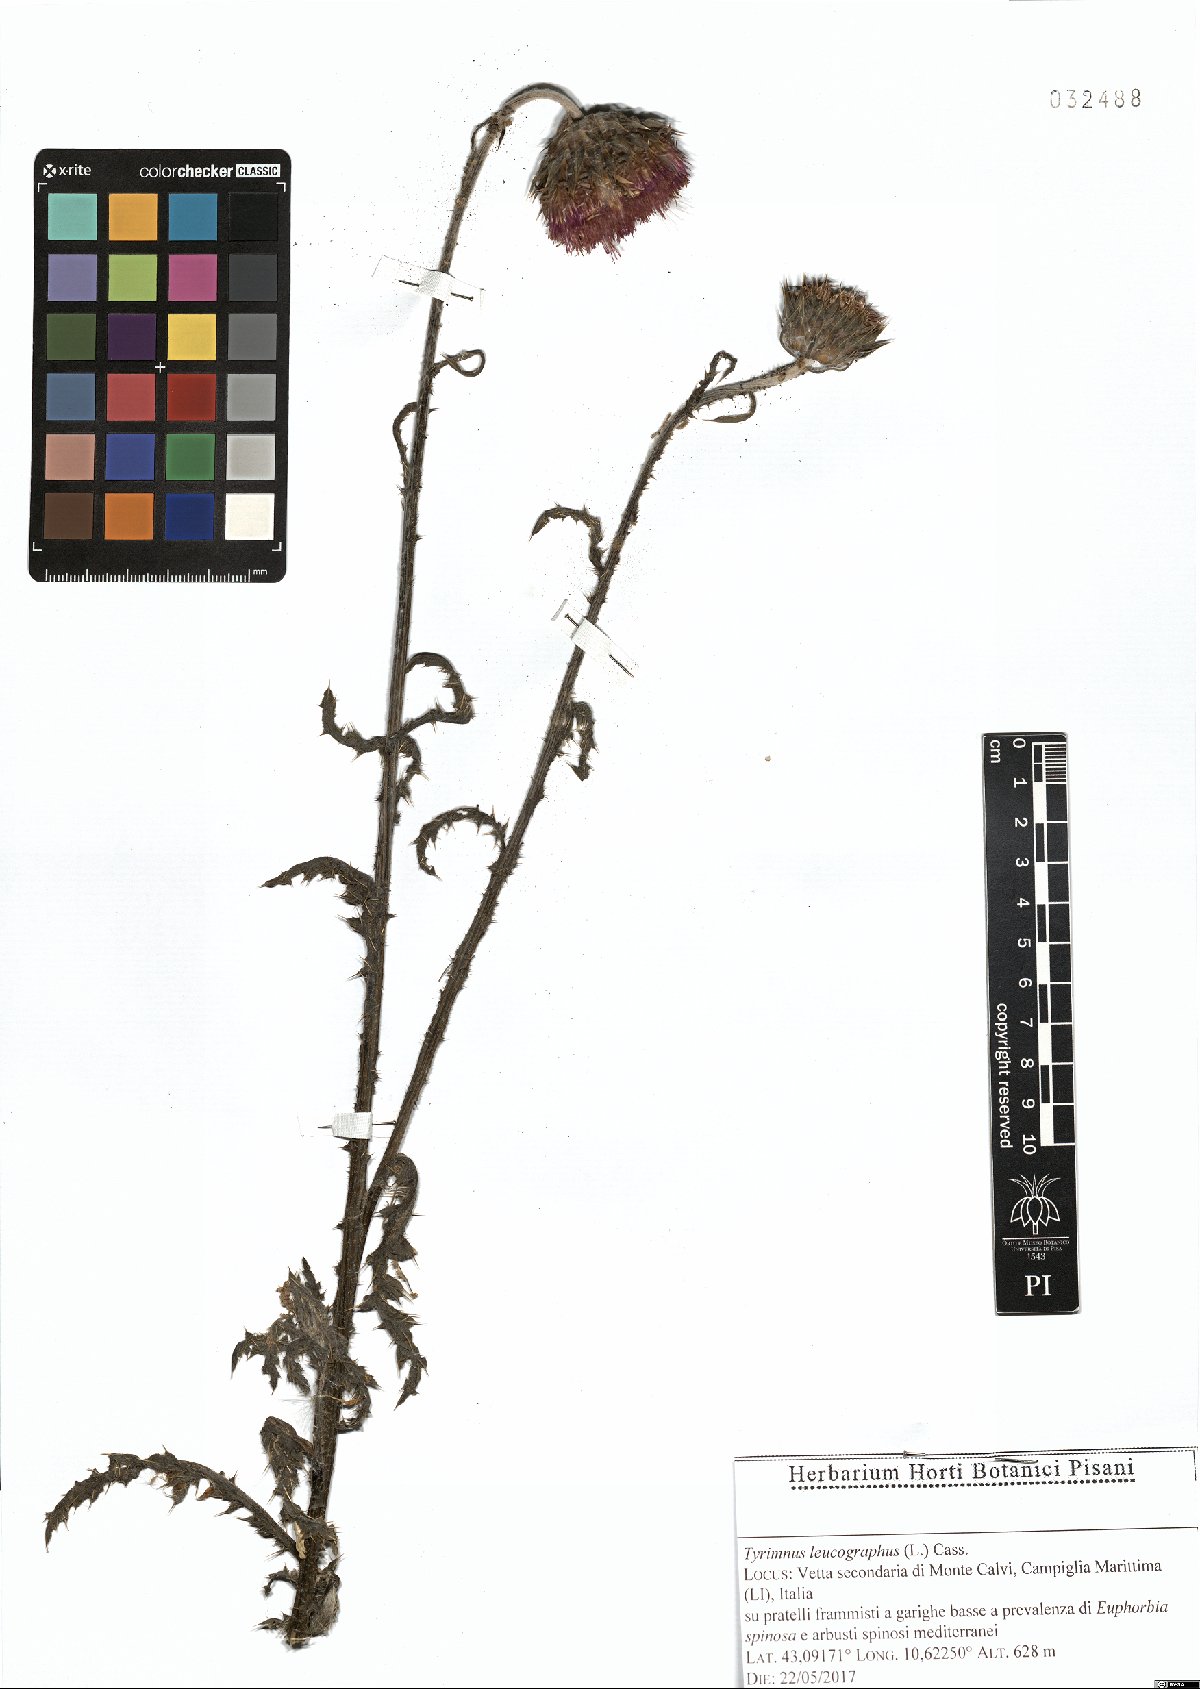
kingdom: Plantae
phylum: Tracheophyta
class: Magnoliopsida
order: Asterales
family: Asteraceae
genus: Tyrimnus
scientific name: Tyrimnus leucographus
